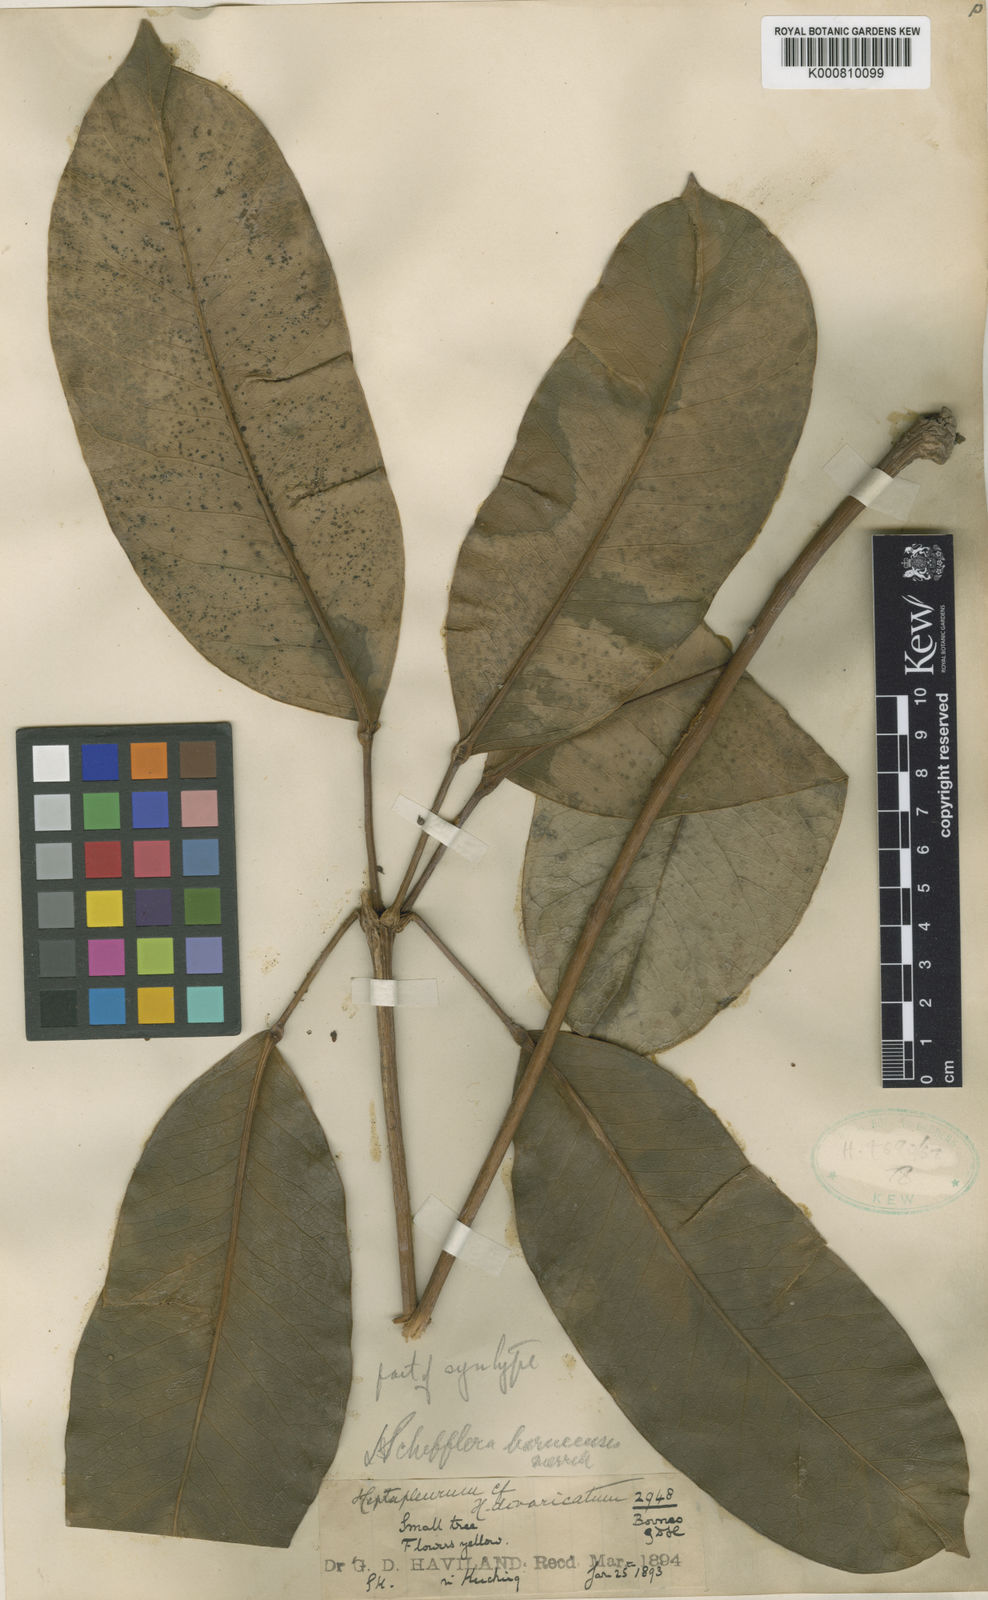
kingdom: Plantae
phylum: Tracheophyta
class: Magnoliopsida
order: Apiales
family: Araliaceae
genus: Heptapleurum
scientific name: Heptapleurum kuchingense
